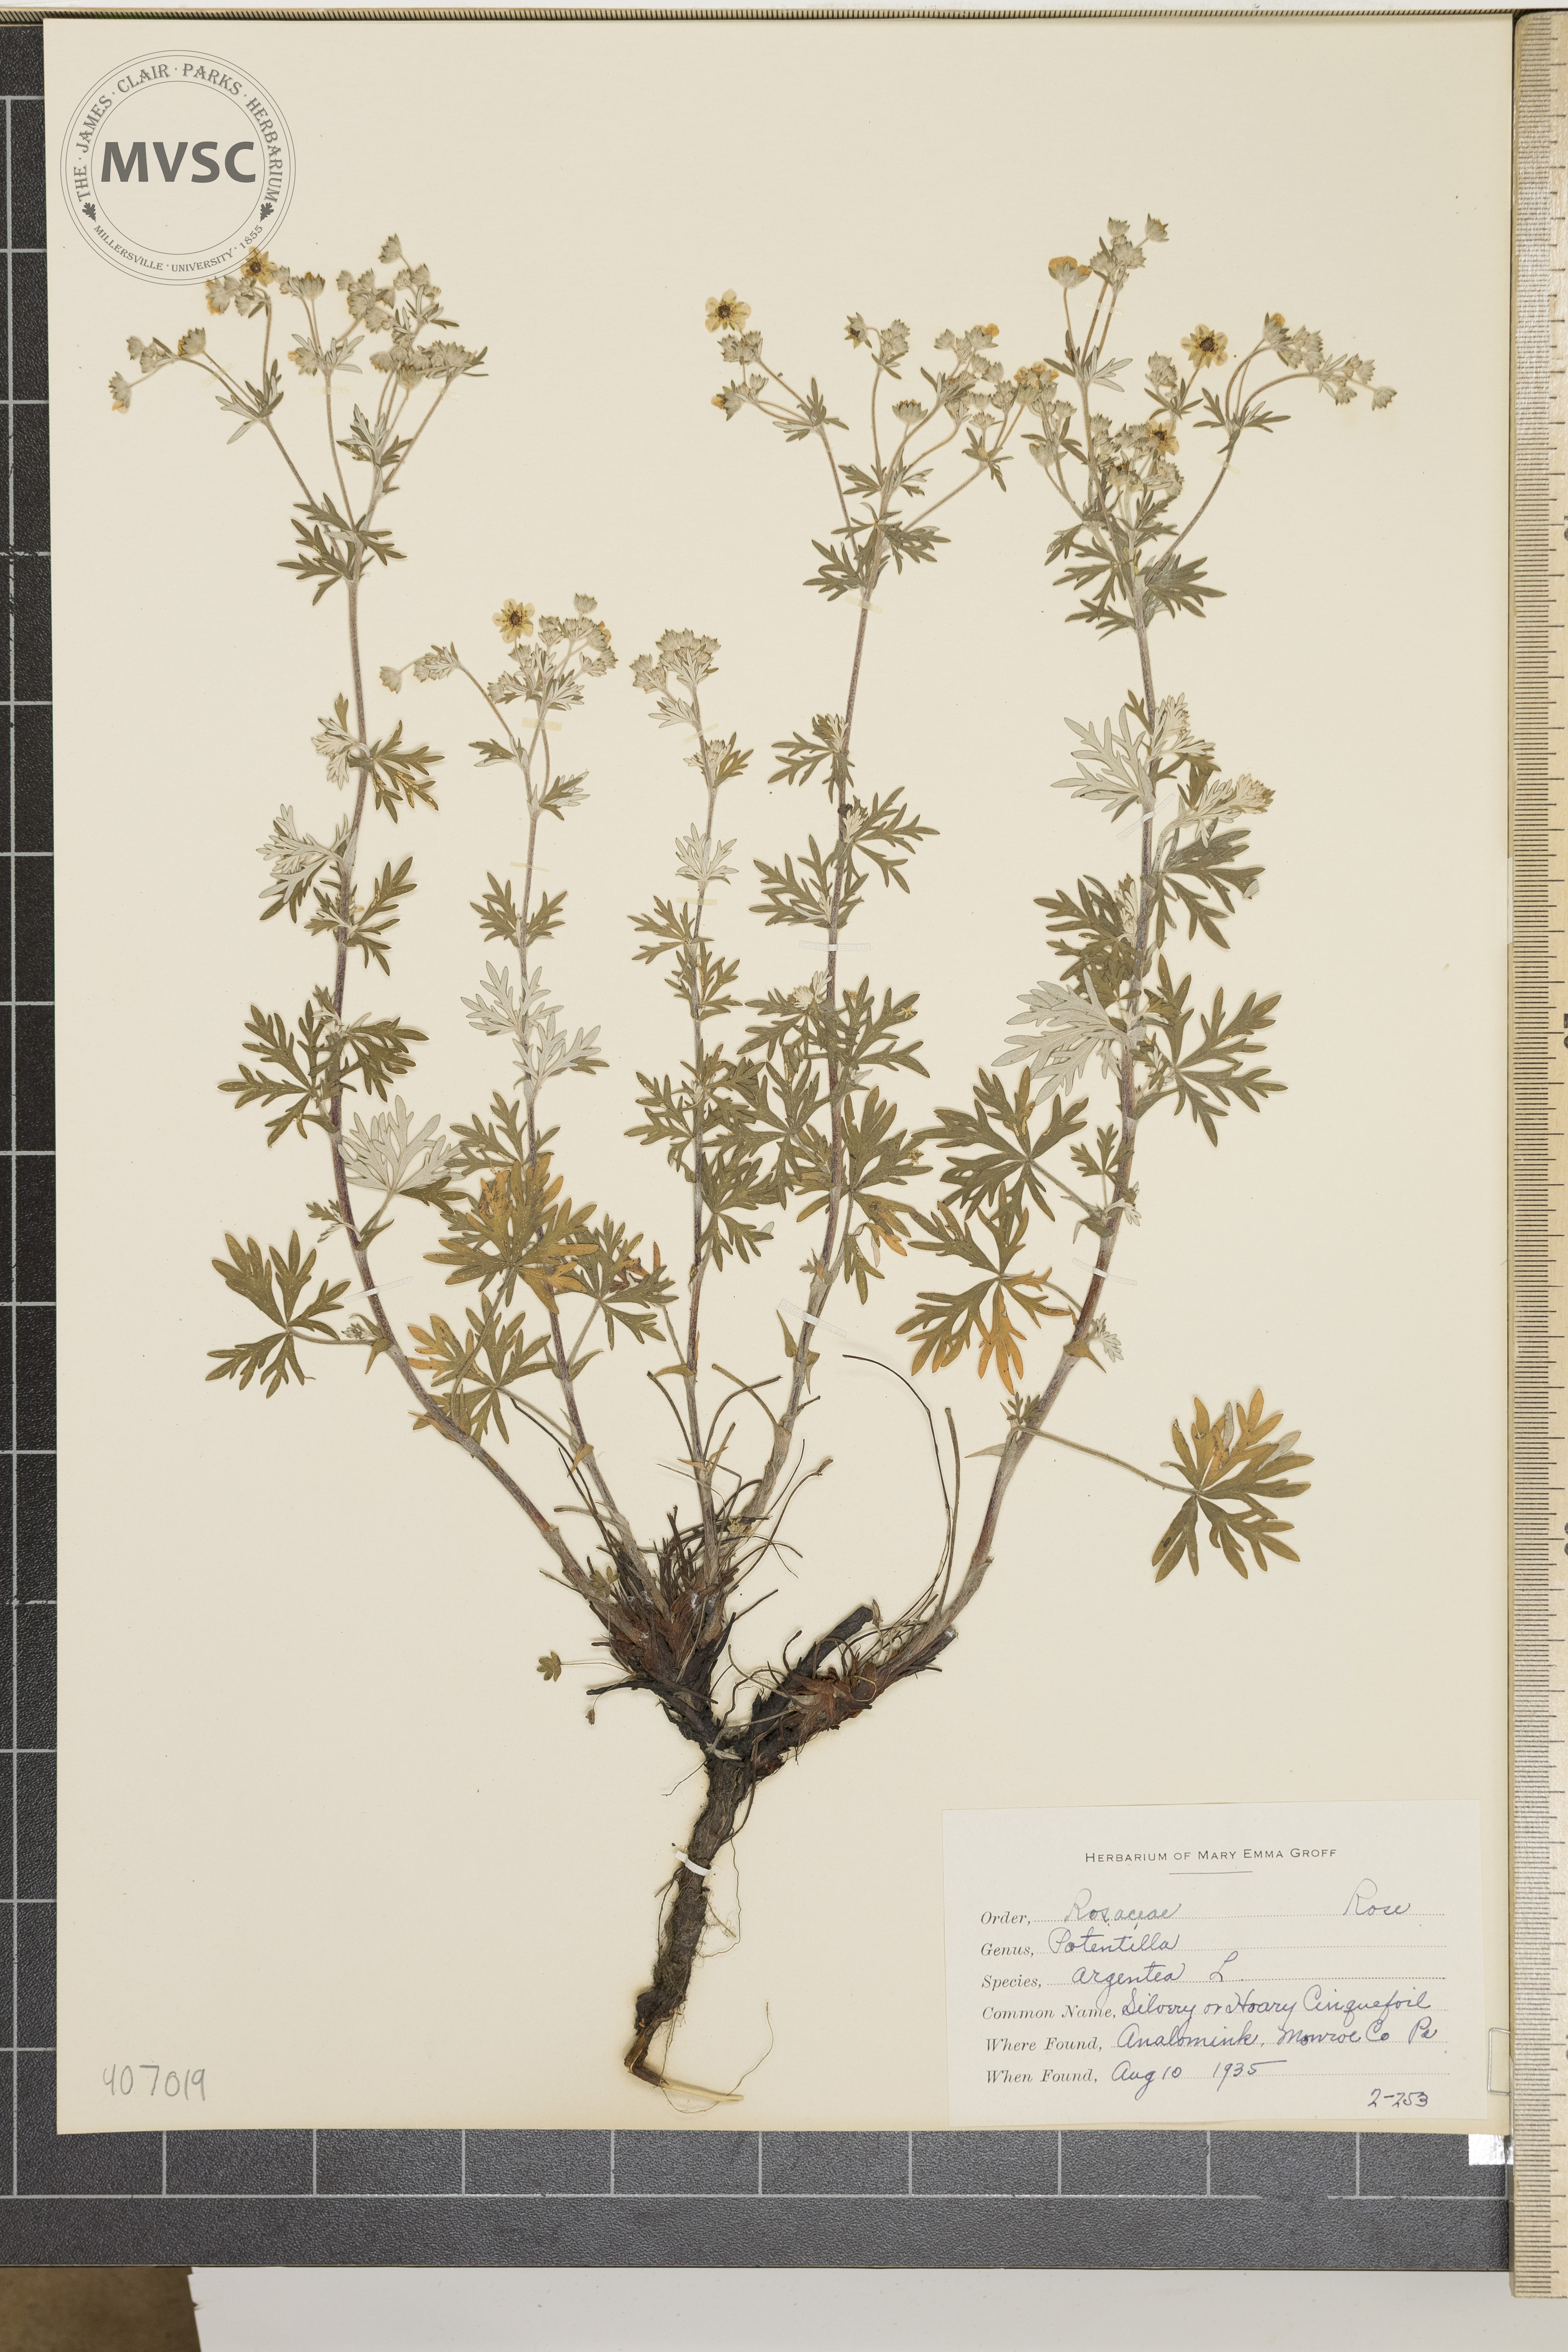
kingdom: Plantae
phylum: Tracheophyta
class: Magnoliopsida
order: Rosales
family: Rosaceae
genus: Potentilla
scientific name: Potentilla argentea
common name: Hoary cinquefoil
